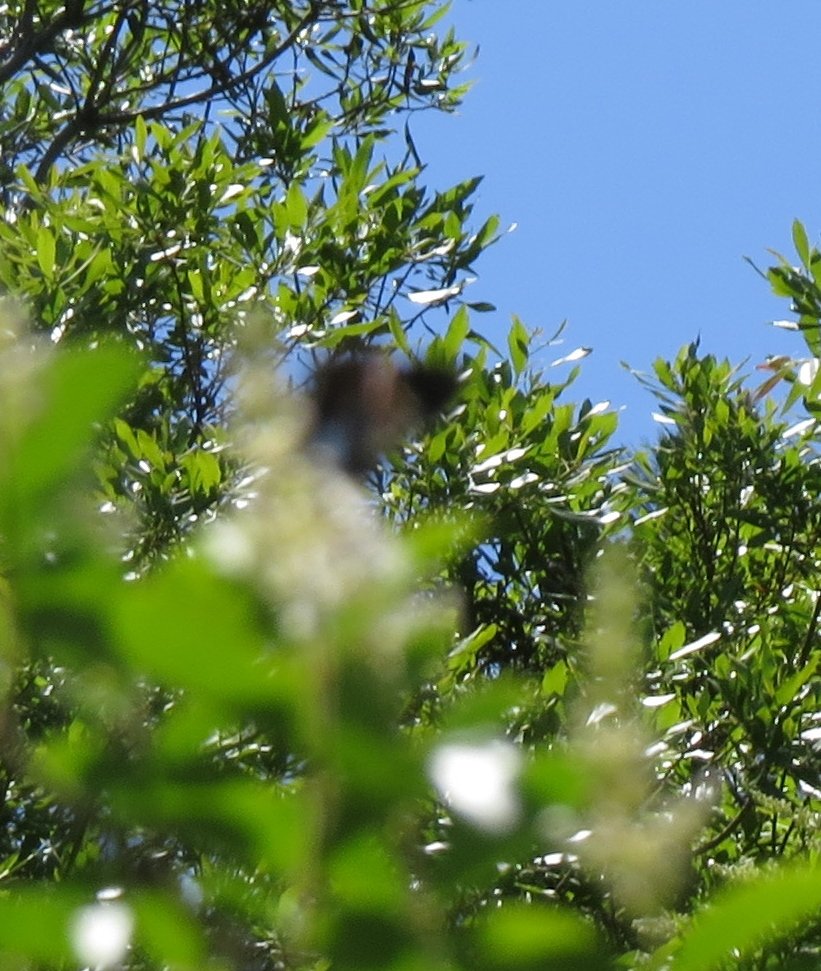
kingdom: Animalia
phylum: Arthropoda
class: Insecta
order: Lepidoptera
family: Hesperiidae
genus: Epargyreus
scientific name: Epargyreus clarus
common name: Silver-spotted Skipper
